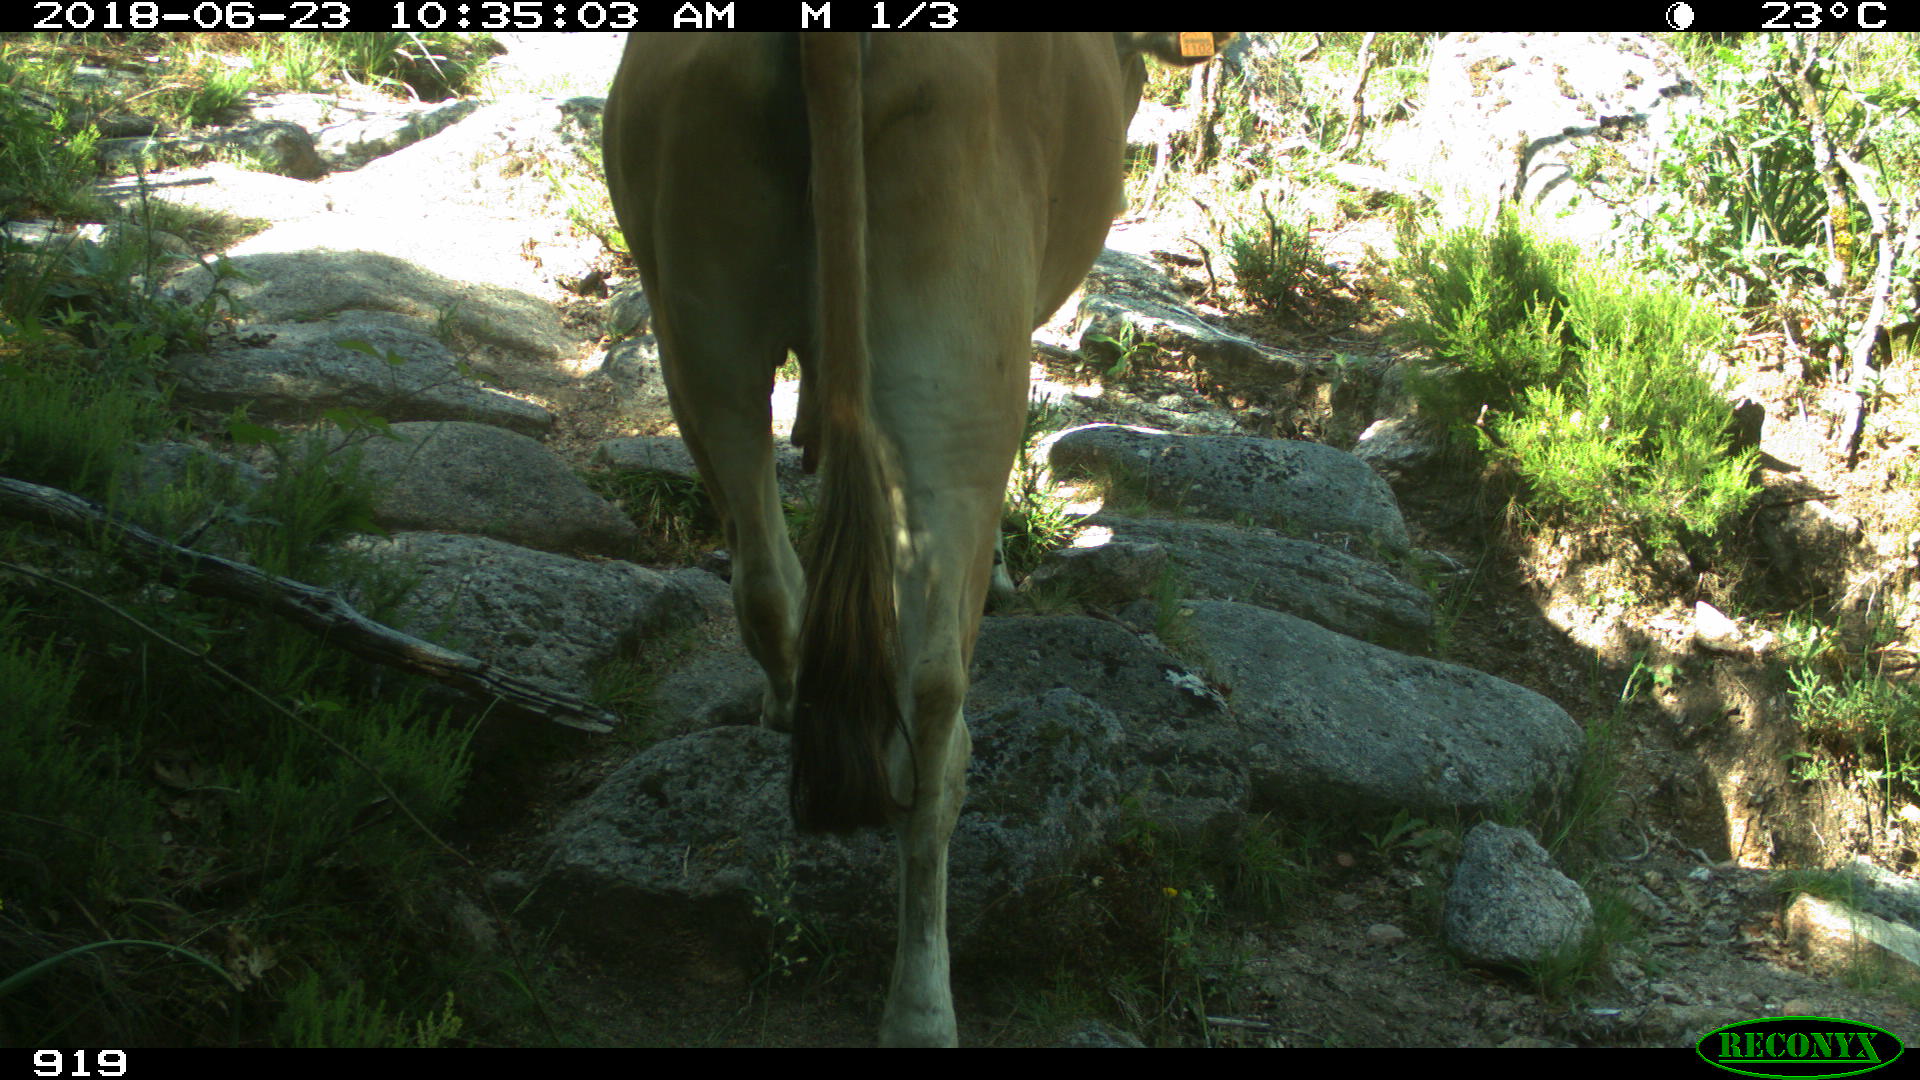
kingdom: Animalia
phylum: Chordata
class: Mammalia
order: Artiodactyla
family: Bovidae
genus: Bos
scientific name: Bos taurus
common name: Domesticated cattle
